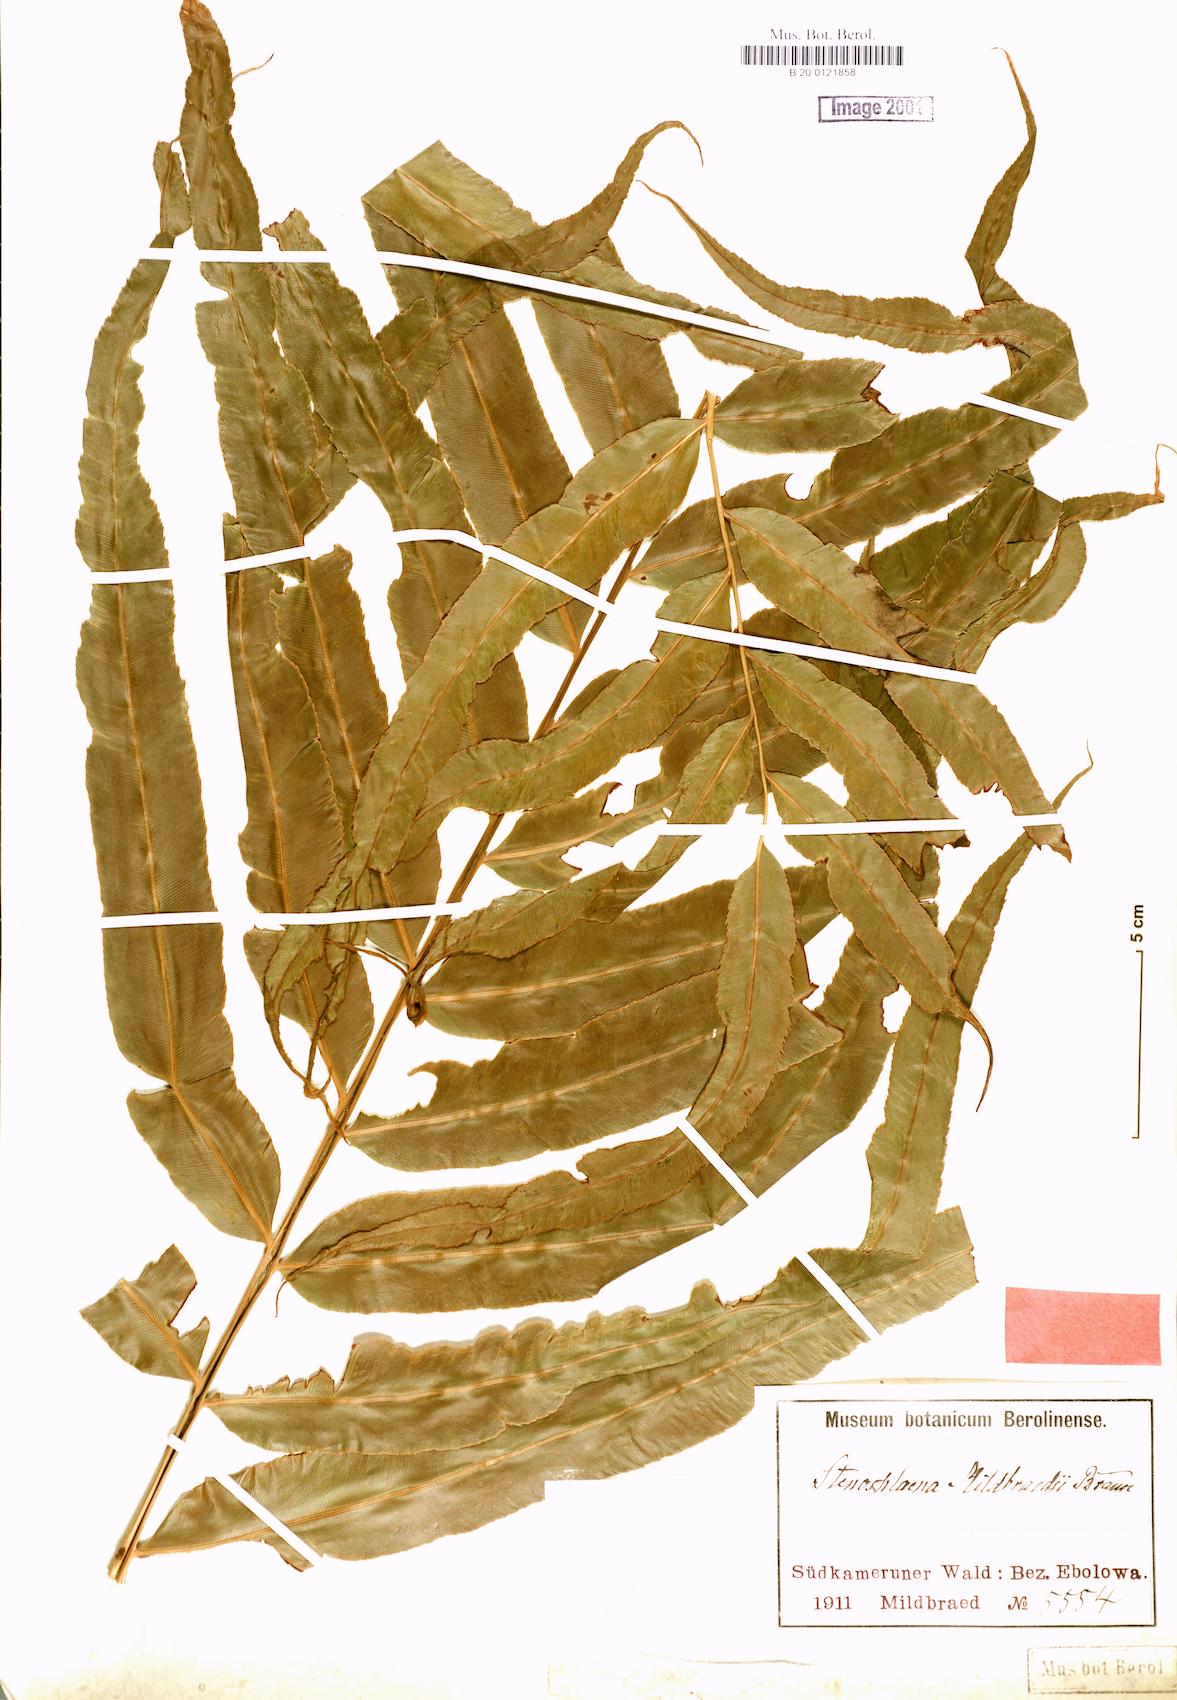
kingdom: Plantae
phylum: Tracheophyta
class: Polypodiopsida
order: Polypodiales
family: Blechnaceae
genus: Stenochlaena
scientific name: Stenochlaena tenuifolia
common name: Giant vine fern
